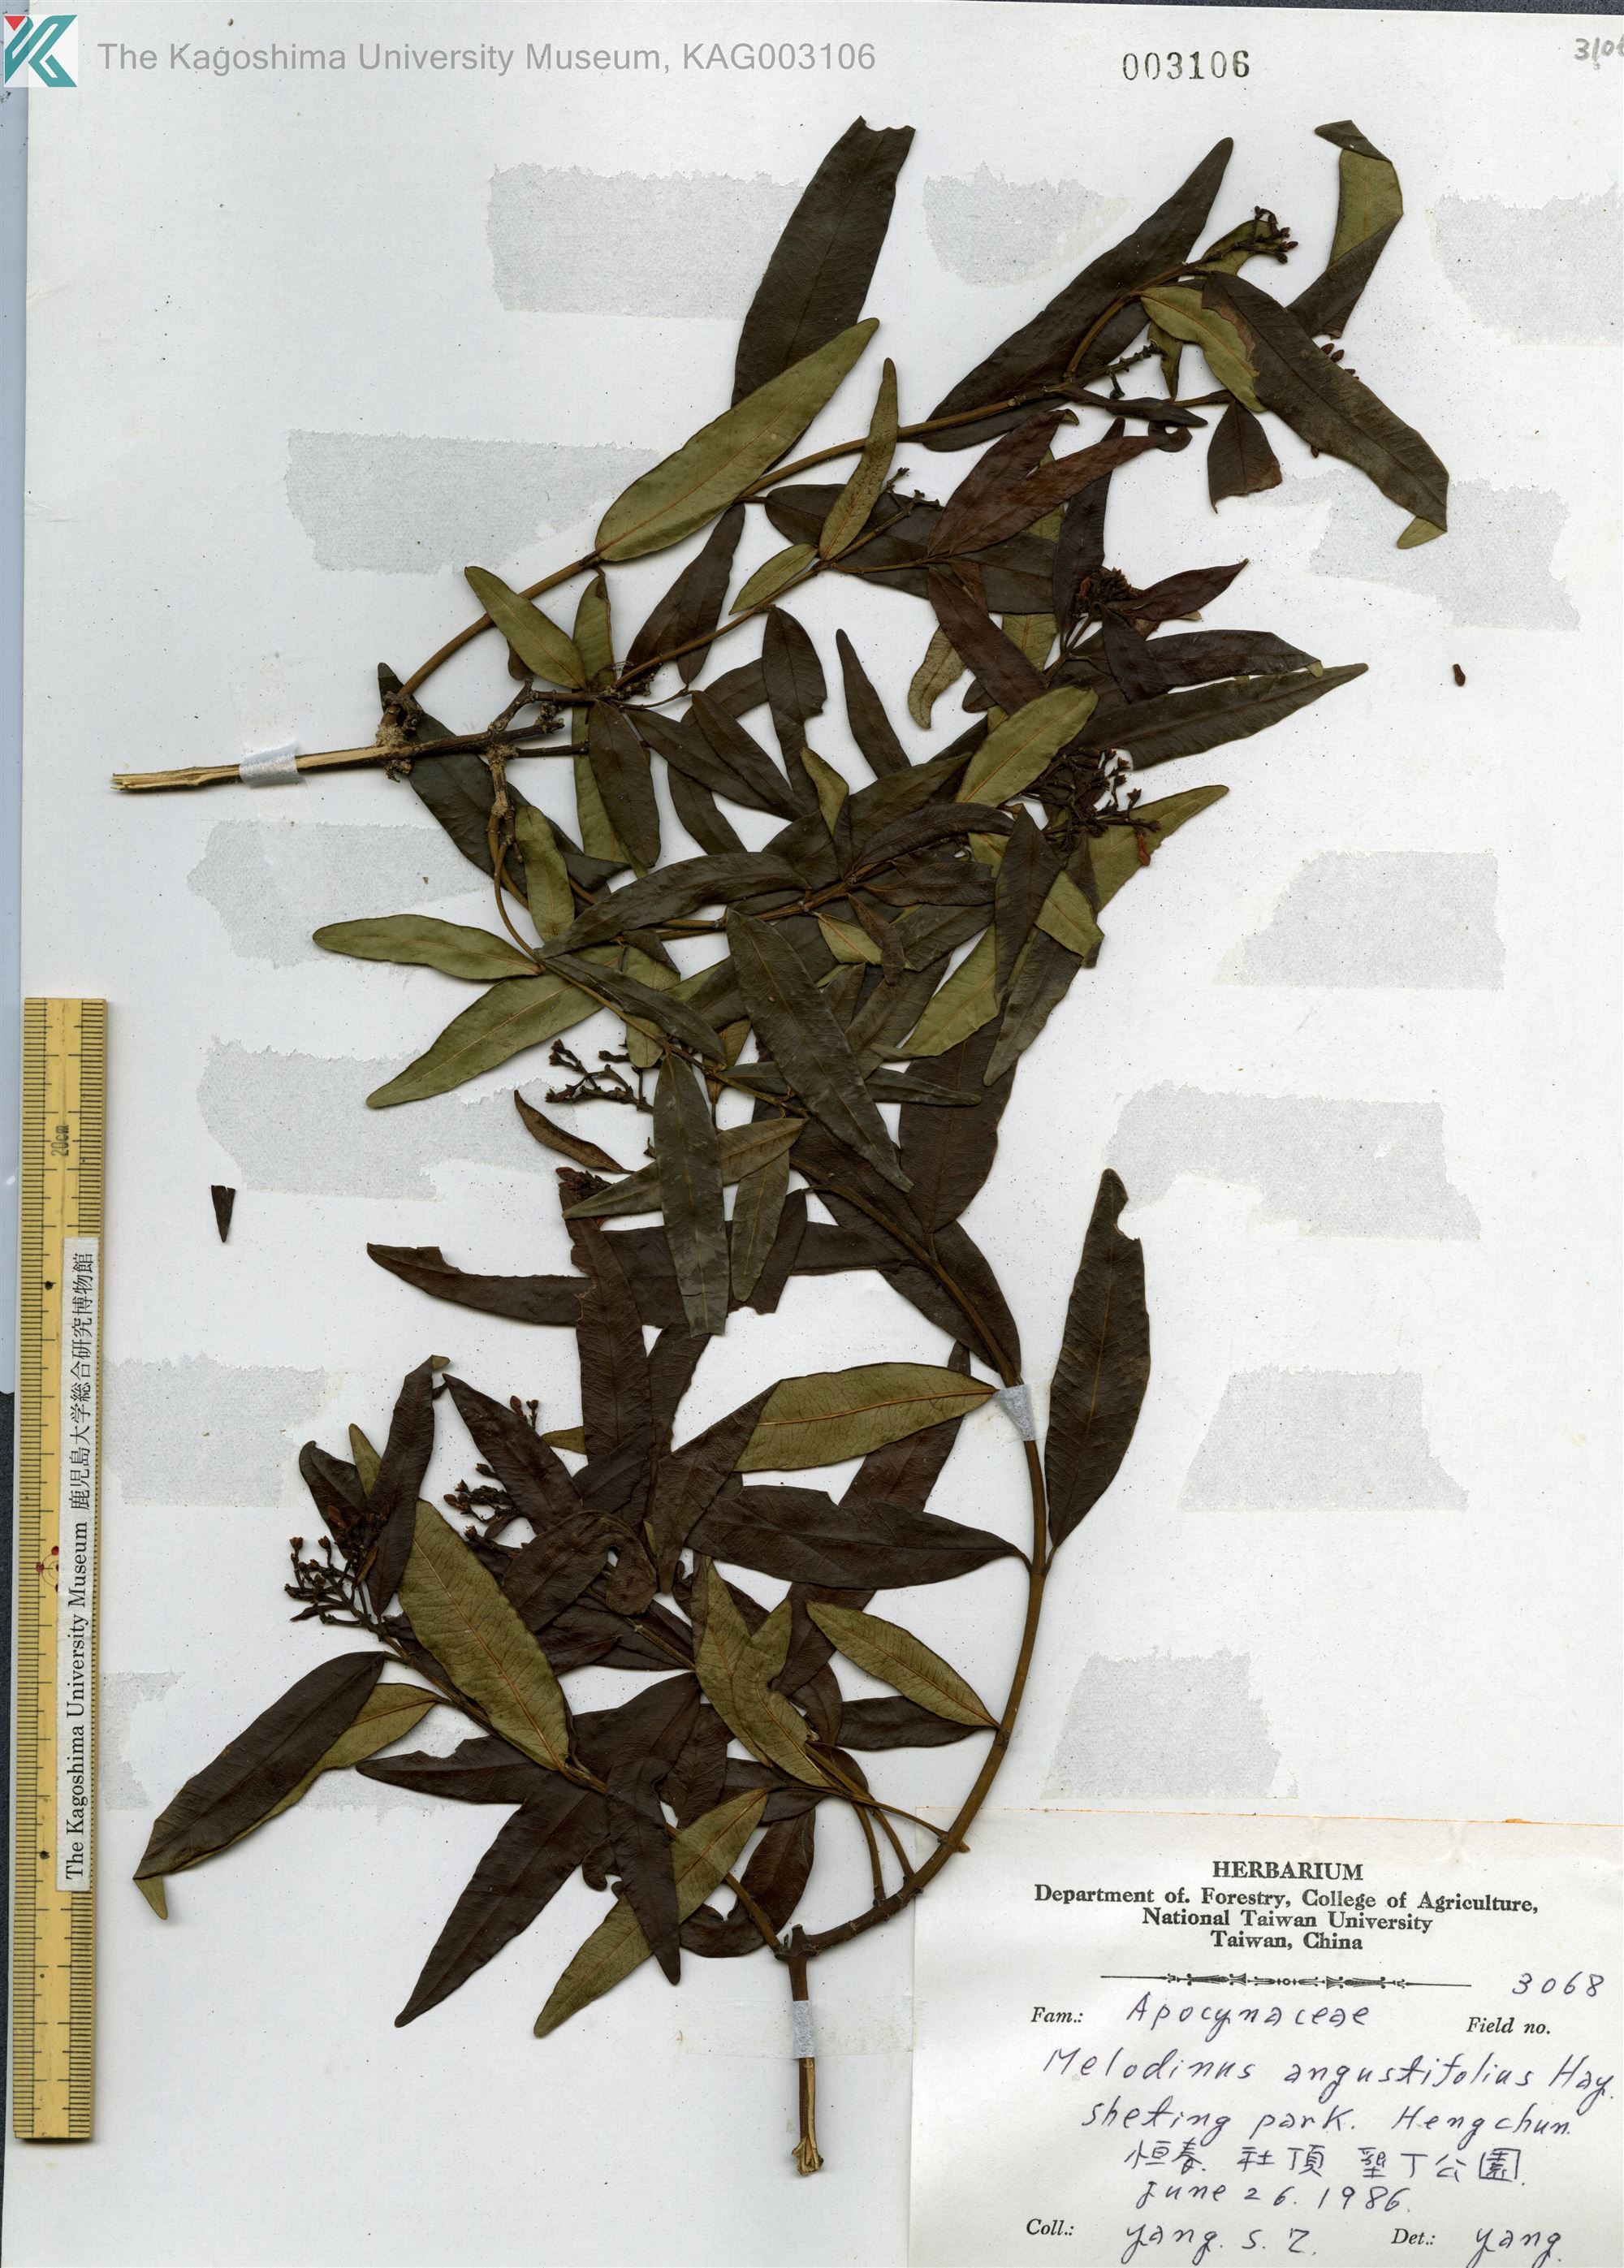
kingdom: Plantae
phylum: Tracheophyta
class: Magnoliopsida
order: Gentianales
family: Apocynaceae
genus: Melodinus
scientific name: Melodinus angustifolius
